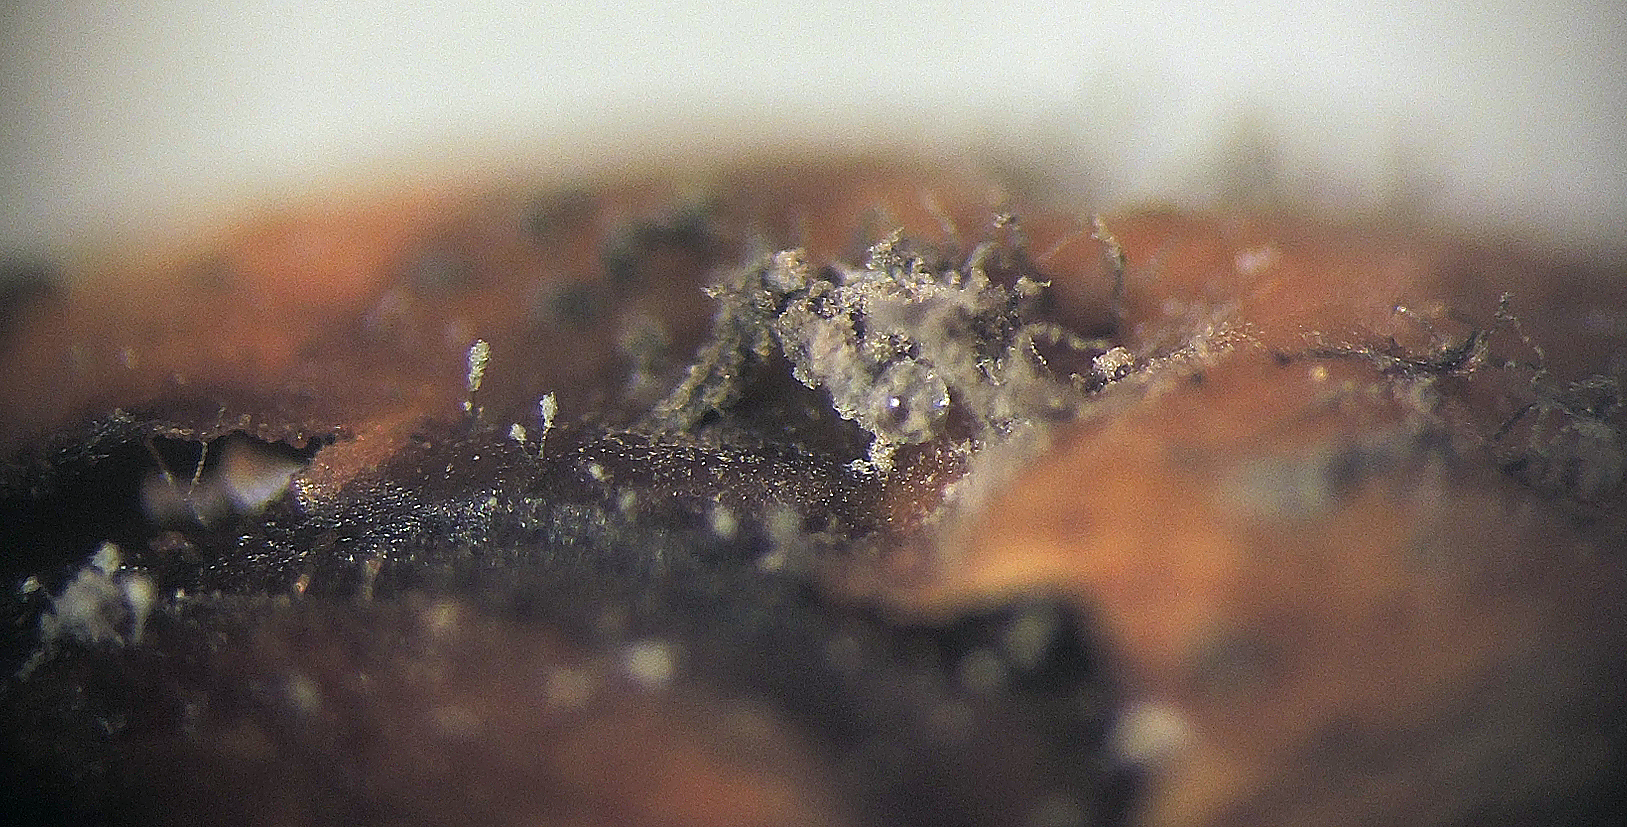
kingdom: Fungi
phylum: Ascomycota
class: Sordariomycetes
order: Microascales
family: Microascaceae
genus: Cephalotrichum
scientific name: Cephalotrichum stemonitis
